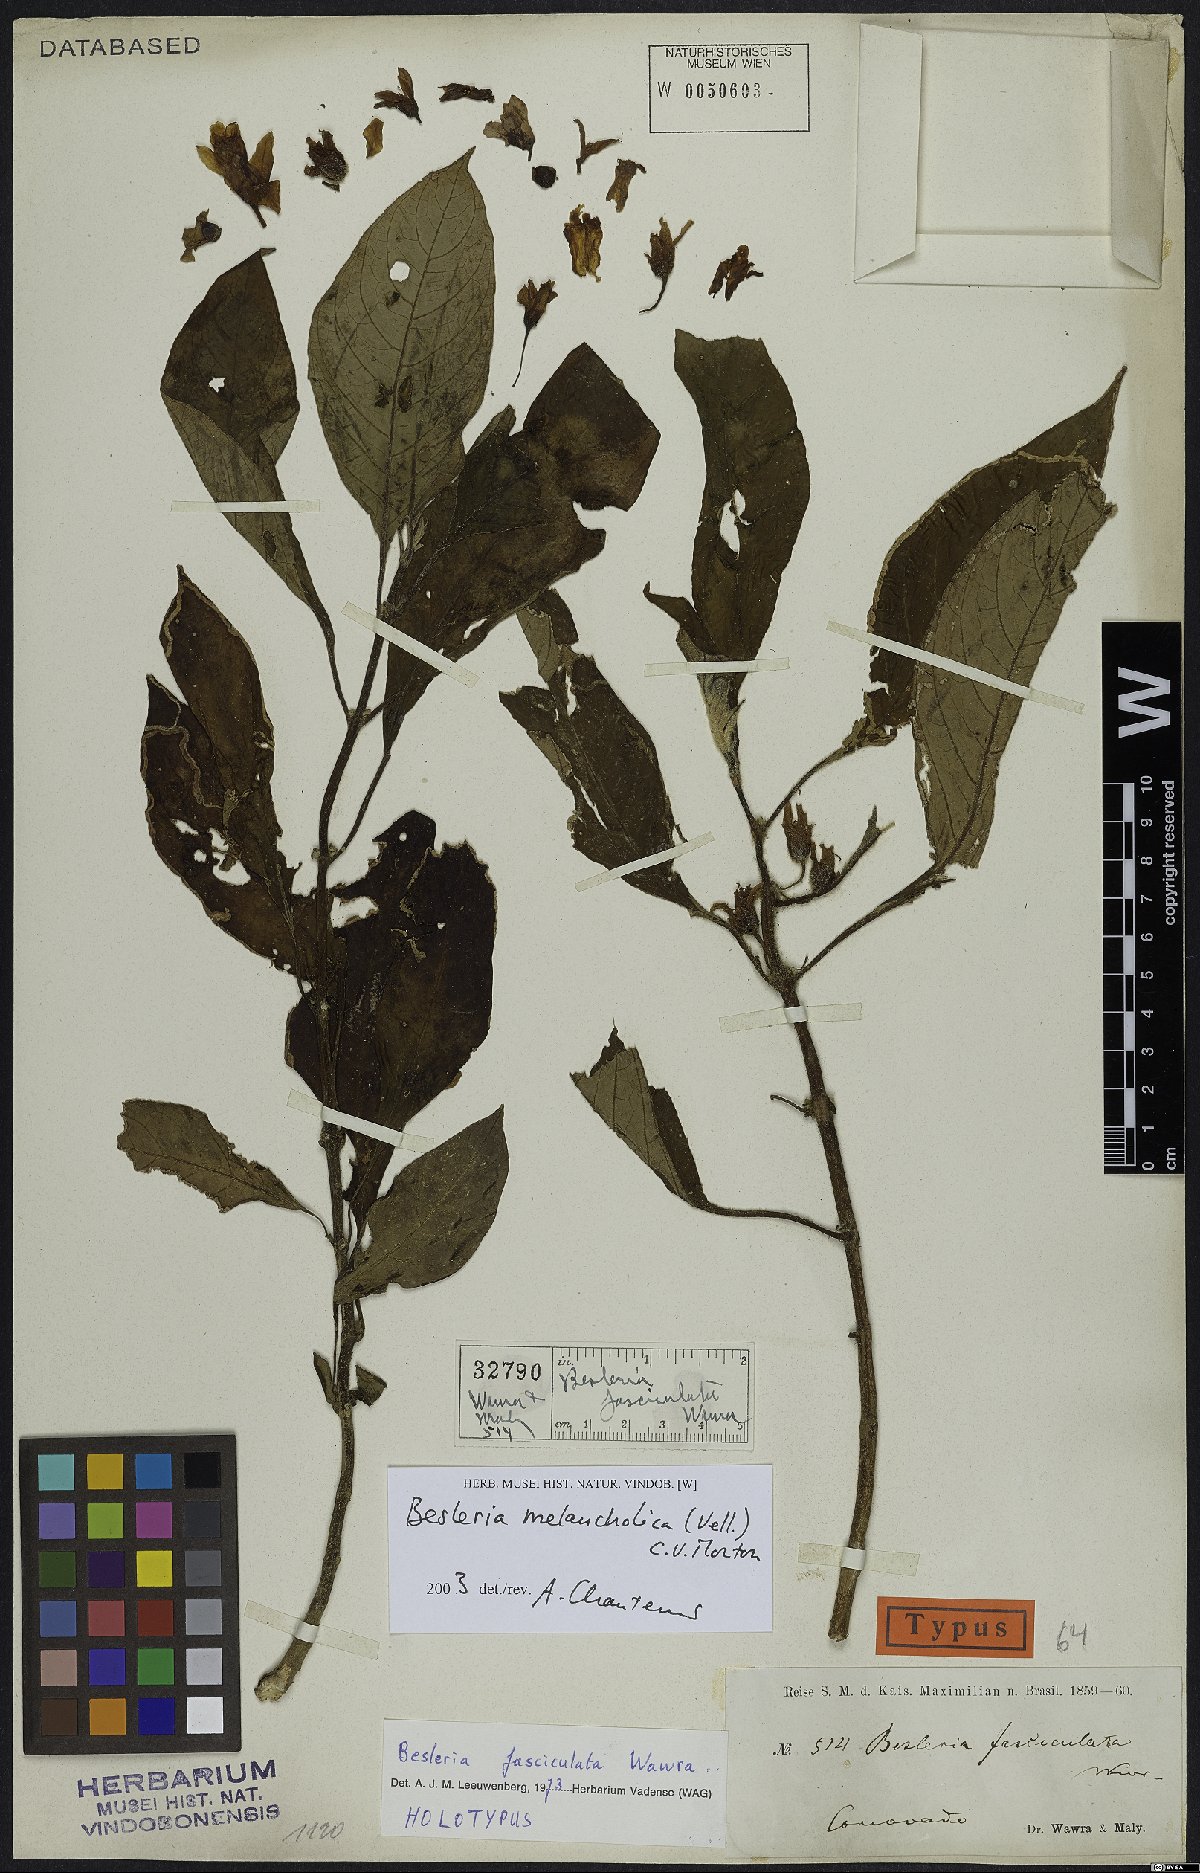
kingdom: Plantae
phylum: Tracheophyta
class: Magnoliopsida
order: Lamiales
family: Gesneriaceae
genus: Besleria
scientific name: Besleria melancholica
